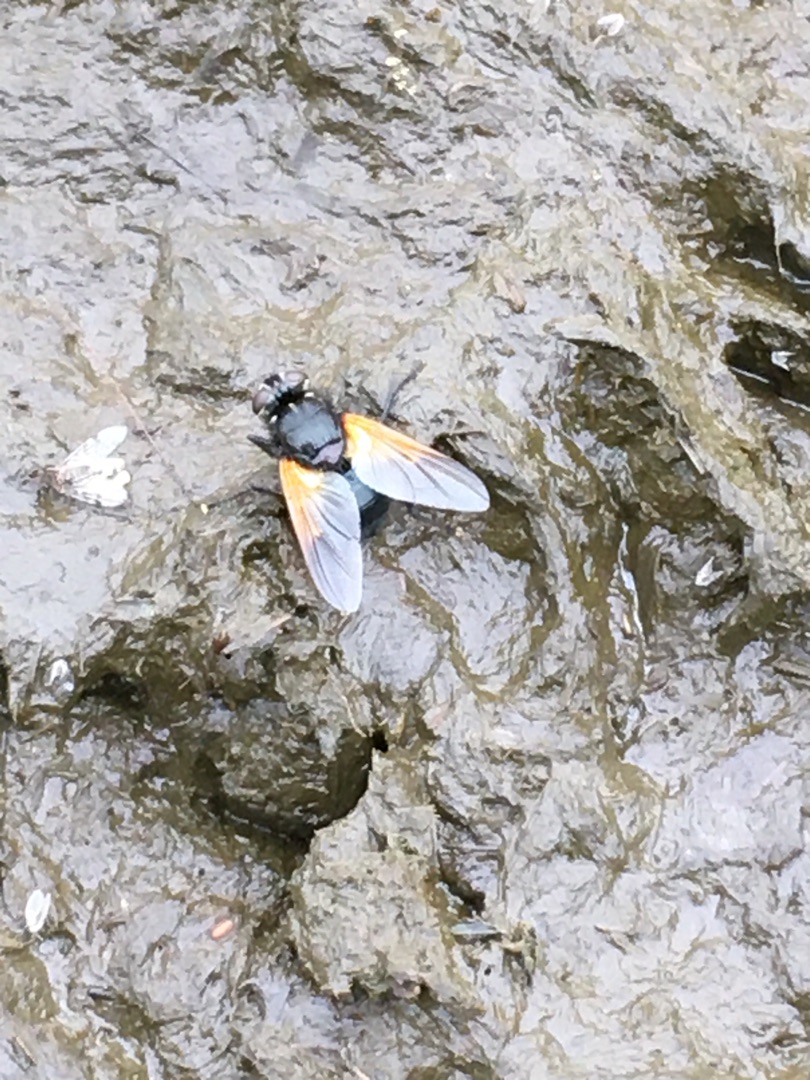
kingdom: Animalia
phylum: Arthropoda
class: Insecta
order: Diptera
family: Muscidae
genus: Mesembrina
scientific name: Mesembrina meridiana
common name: Gulvinget flue
